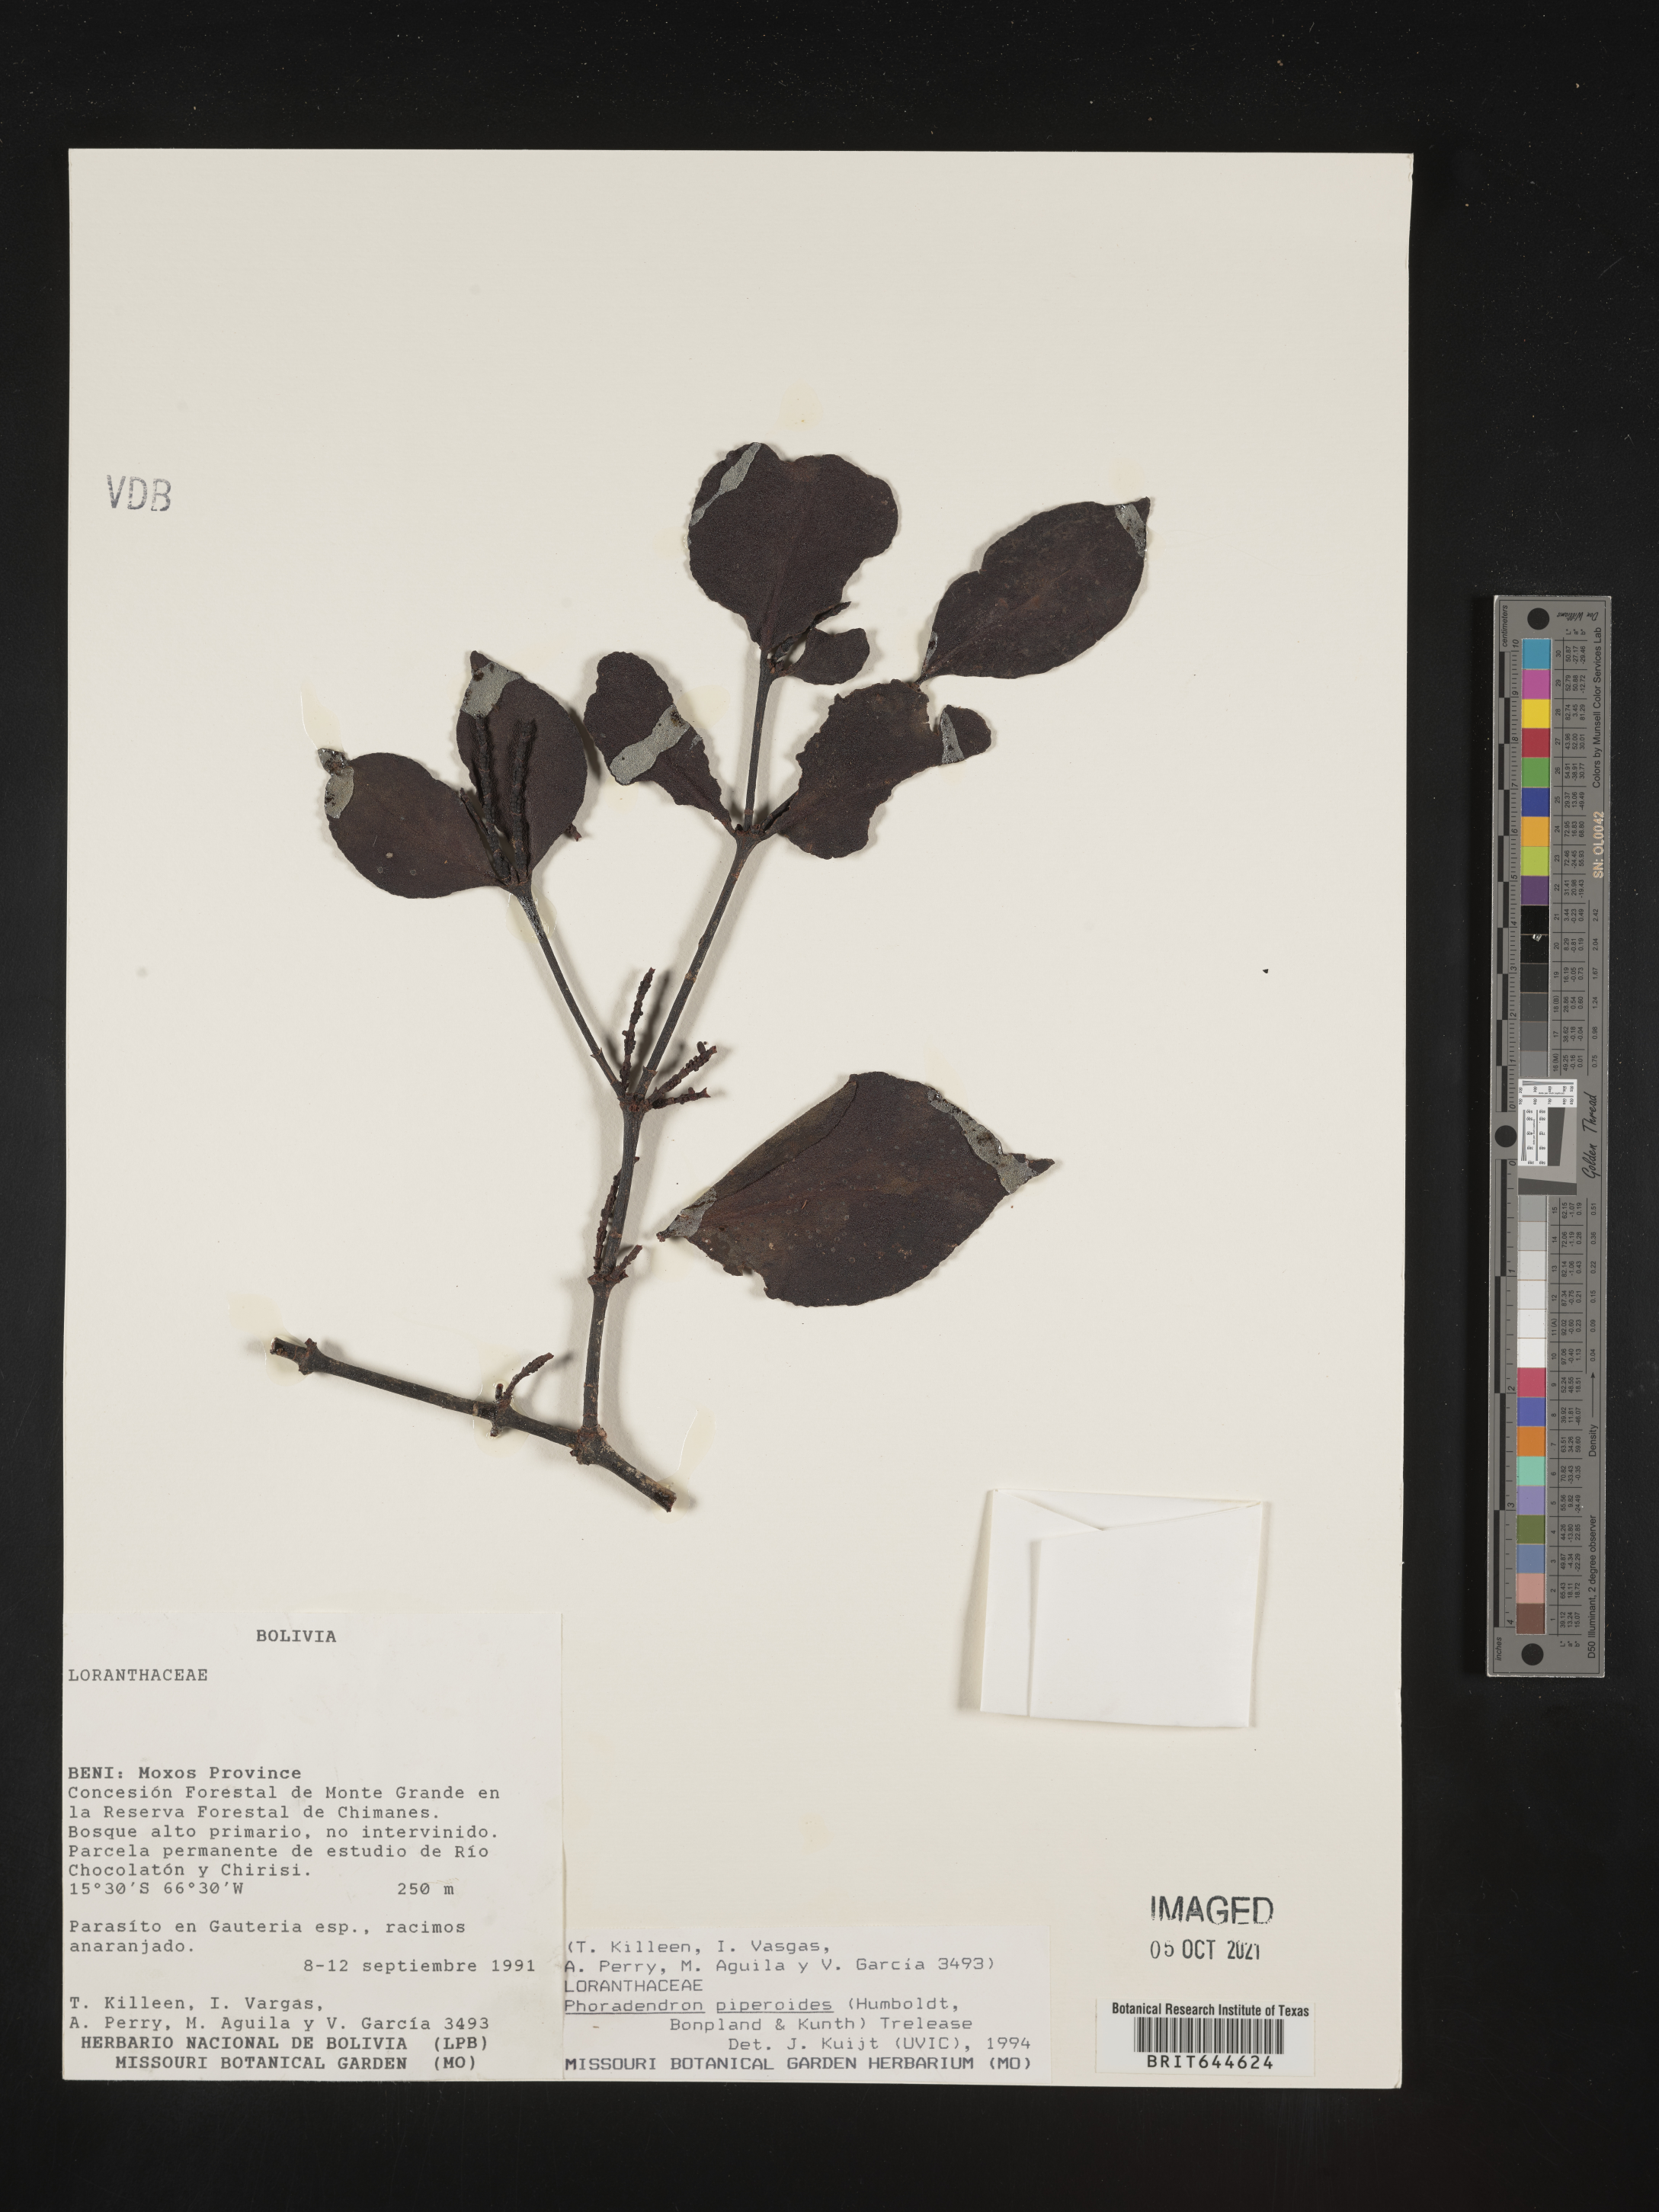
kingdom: Plantae
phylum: Tracheophyta
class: Magnoliopsida
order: Santalales
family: Viscaceae
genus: Phoradendron
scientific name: Phoradendron
